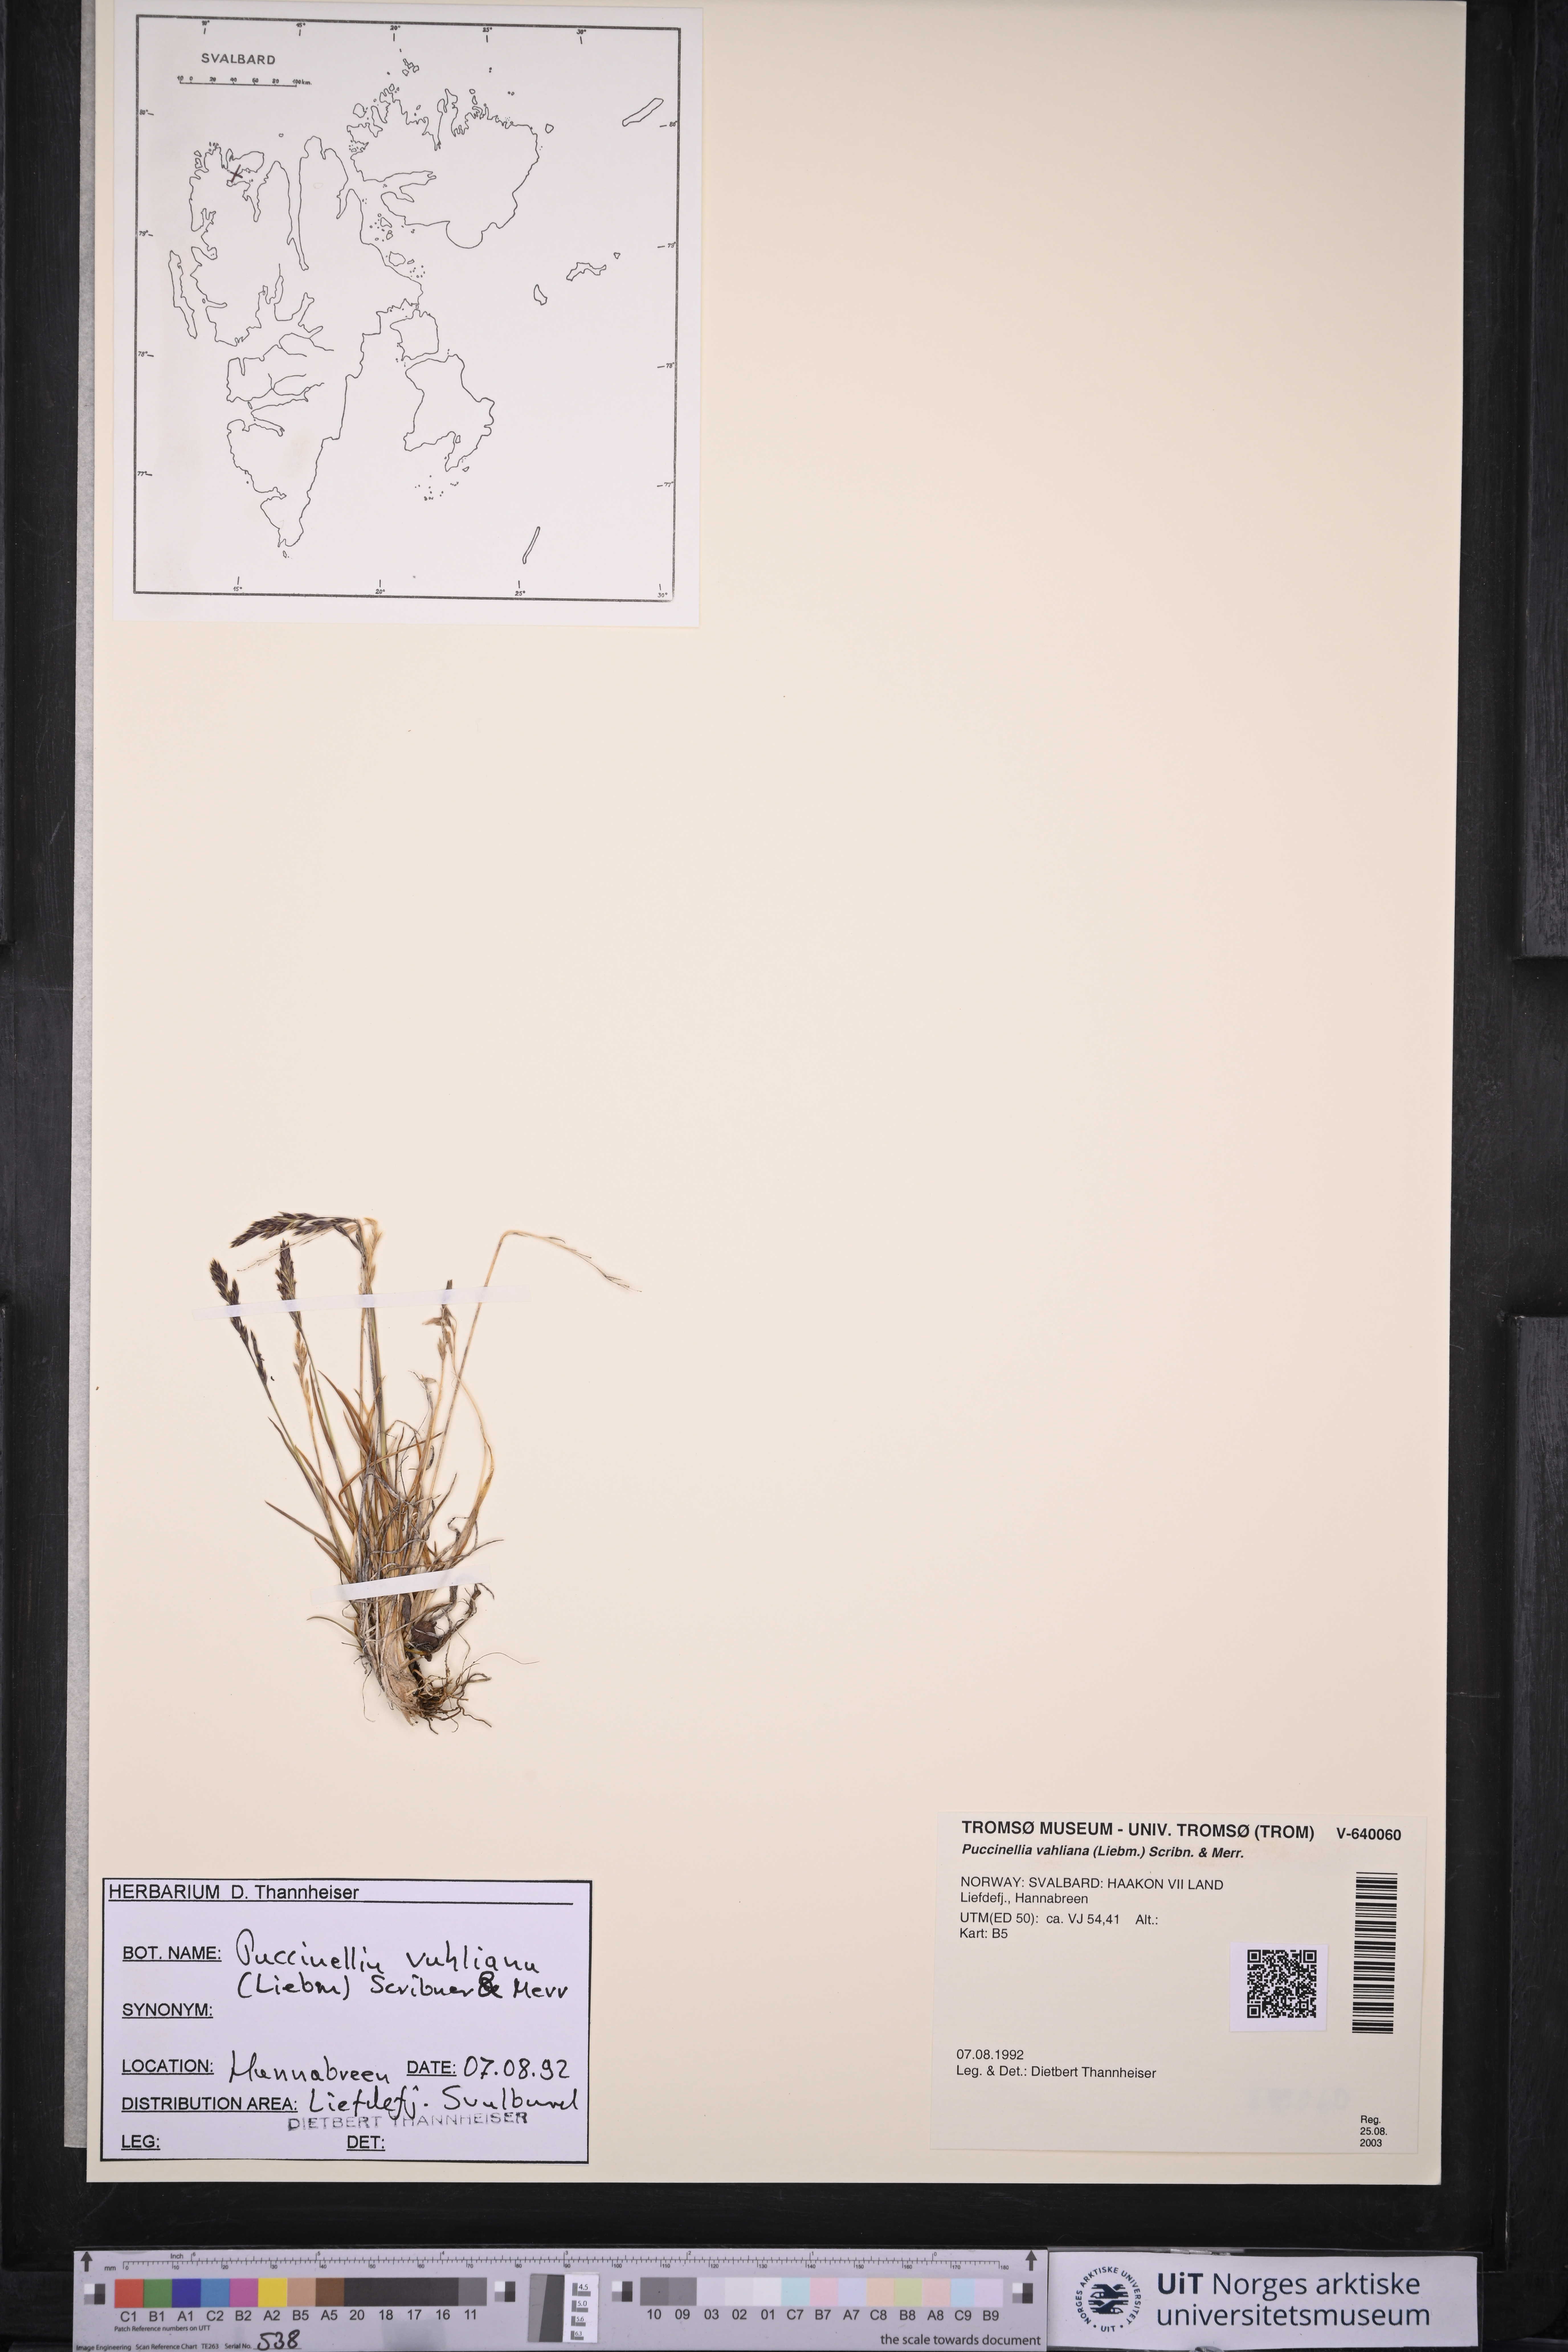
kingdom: Plantae
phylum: Tracheophyta
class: Liliopsida
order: Poales
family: Poaceae
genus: Puccinellia
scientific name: Puccinellia vahliana
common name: Vahl's alkaligrass
